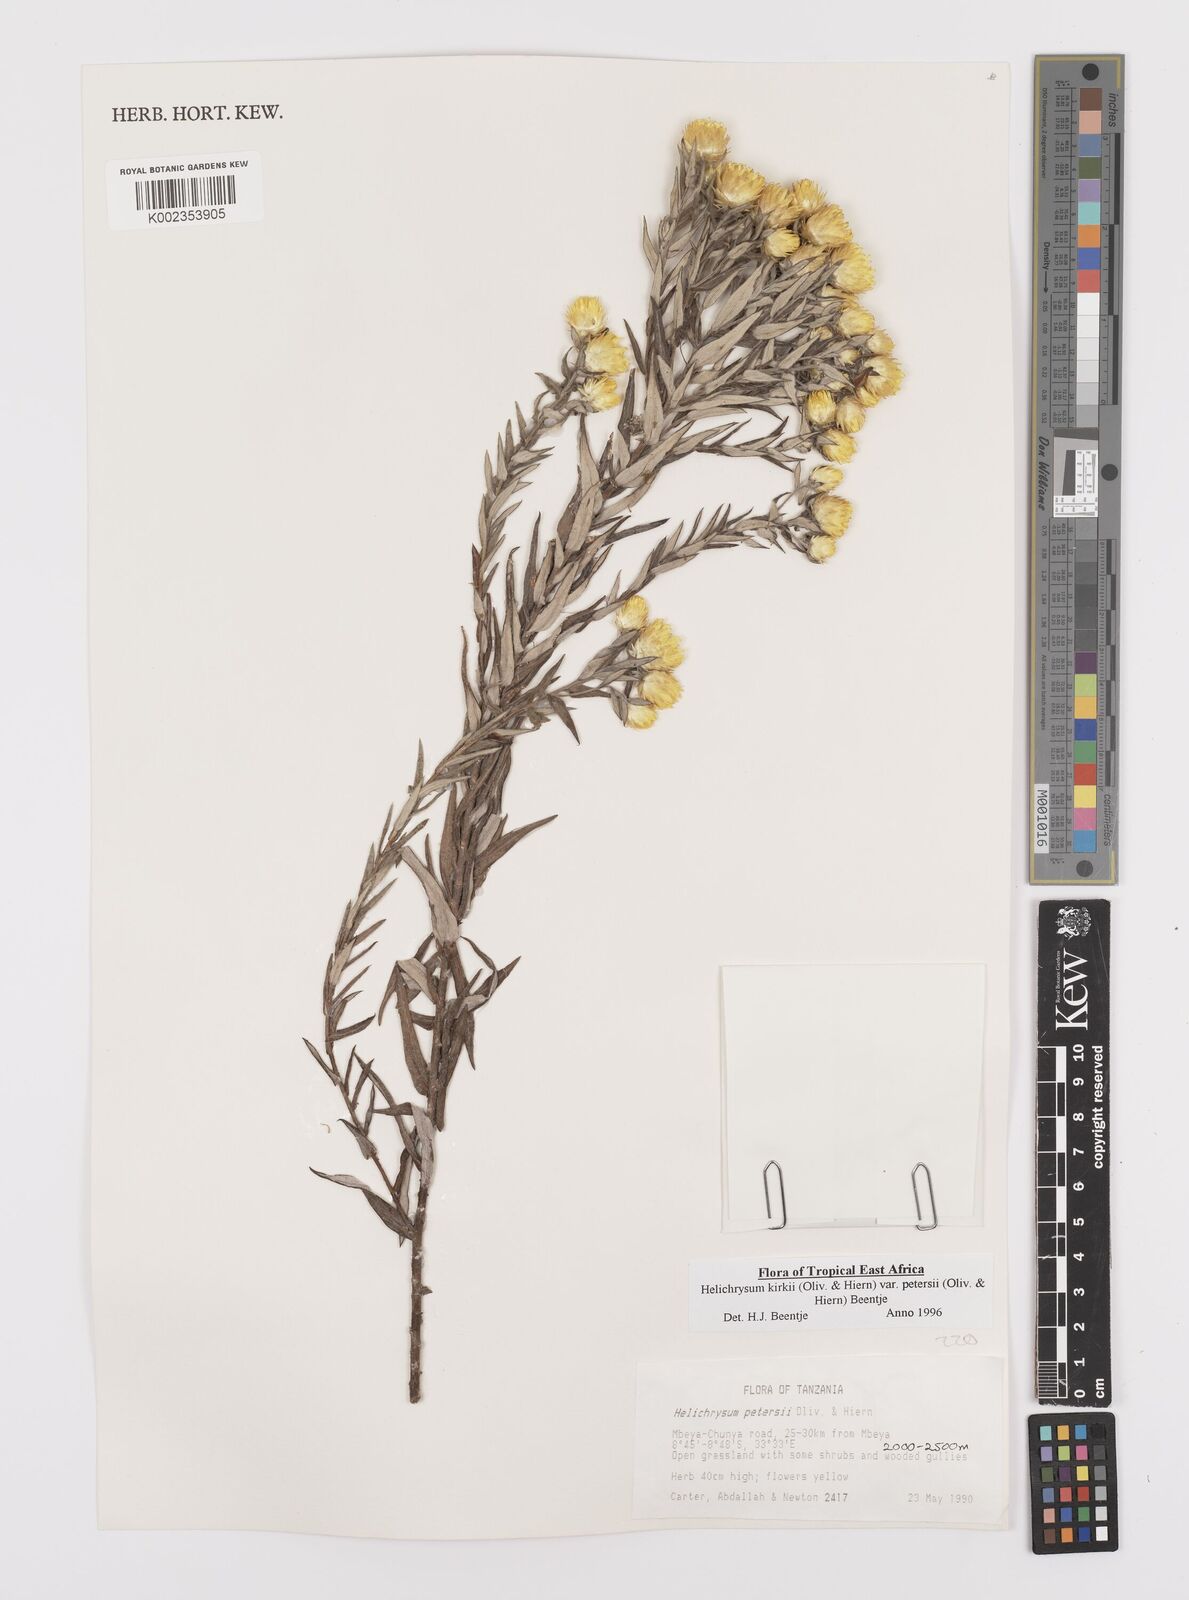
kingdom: Plantae
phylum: Tracheophyta
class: Magnoliopsida
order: Asterales
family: Asteraceae
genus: Helichrysum
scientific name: Helichrysum kirkii
